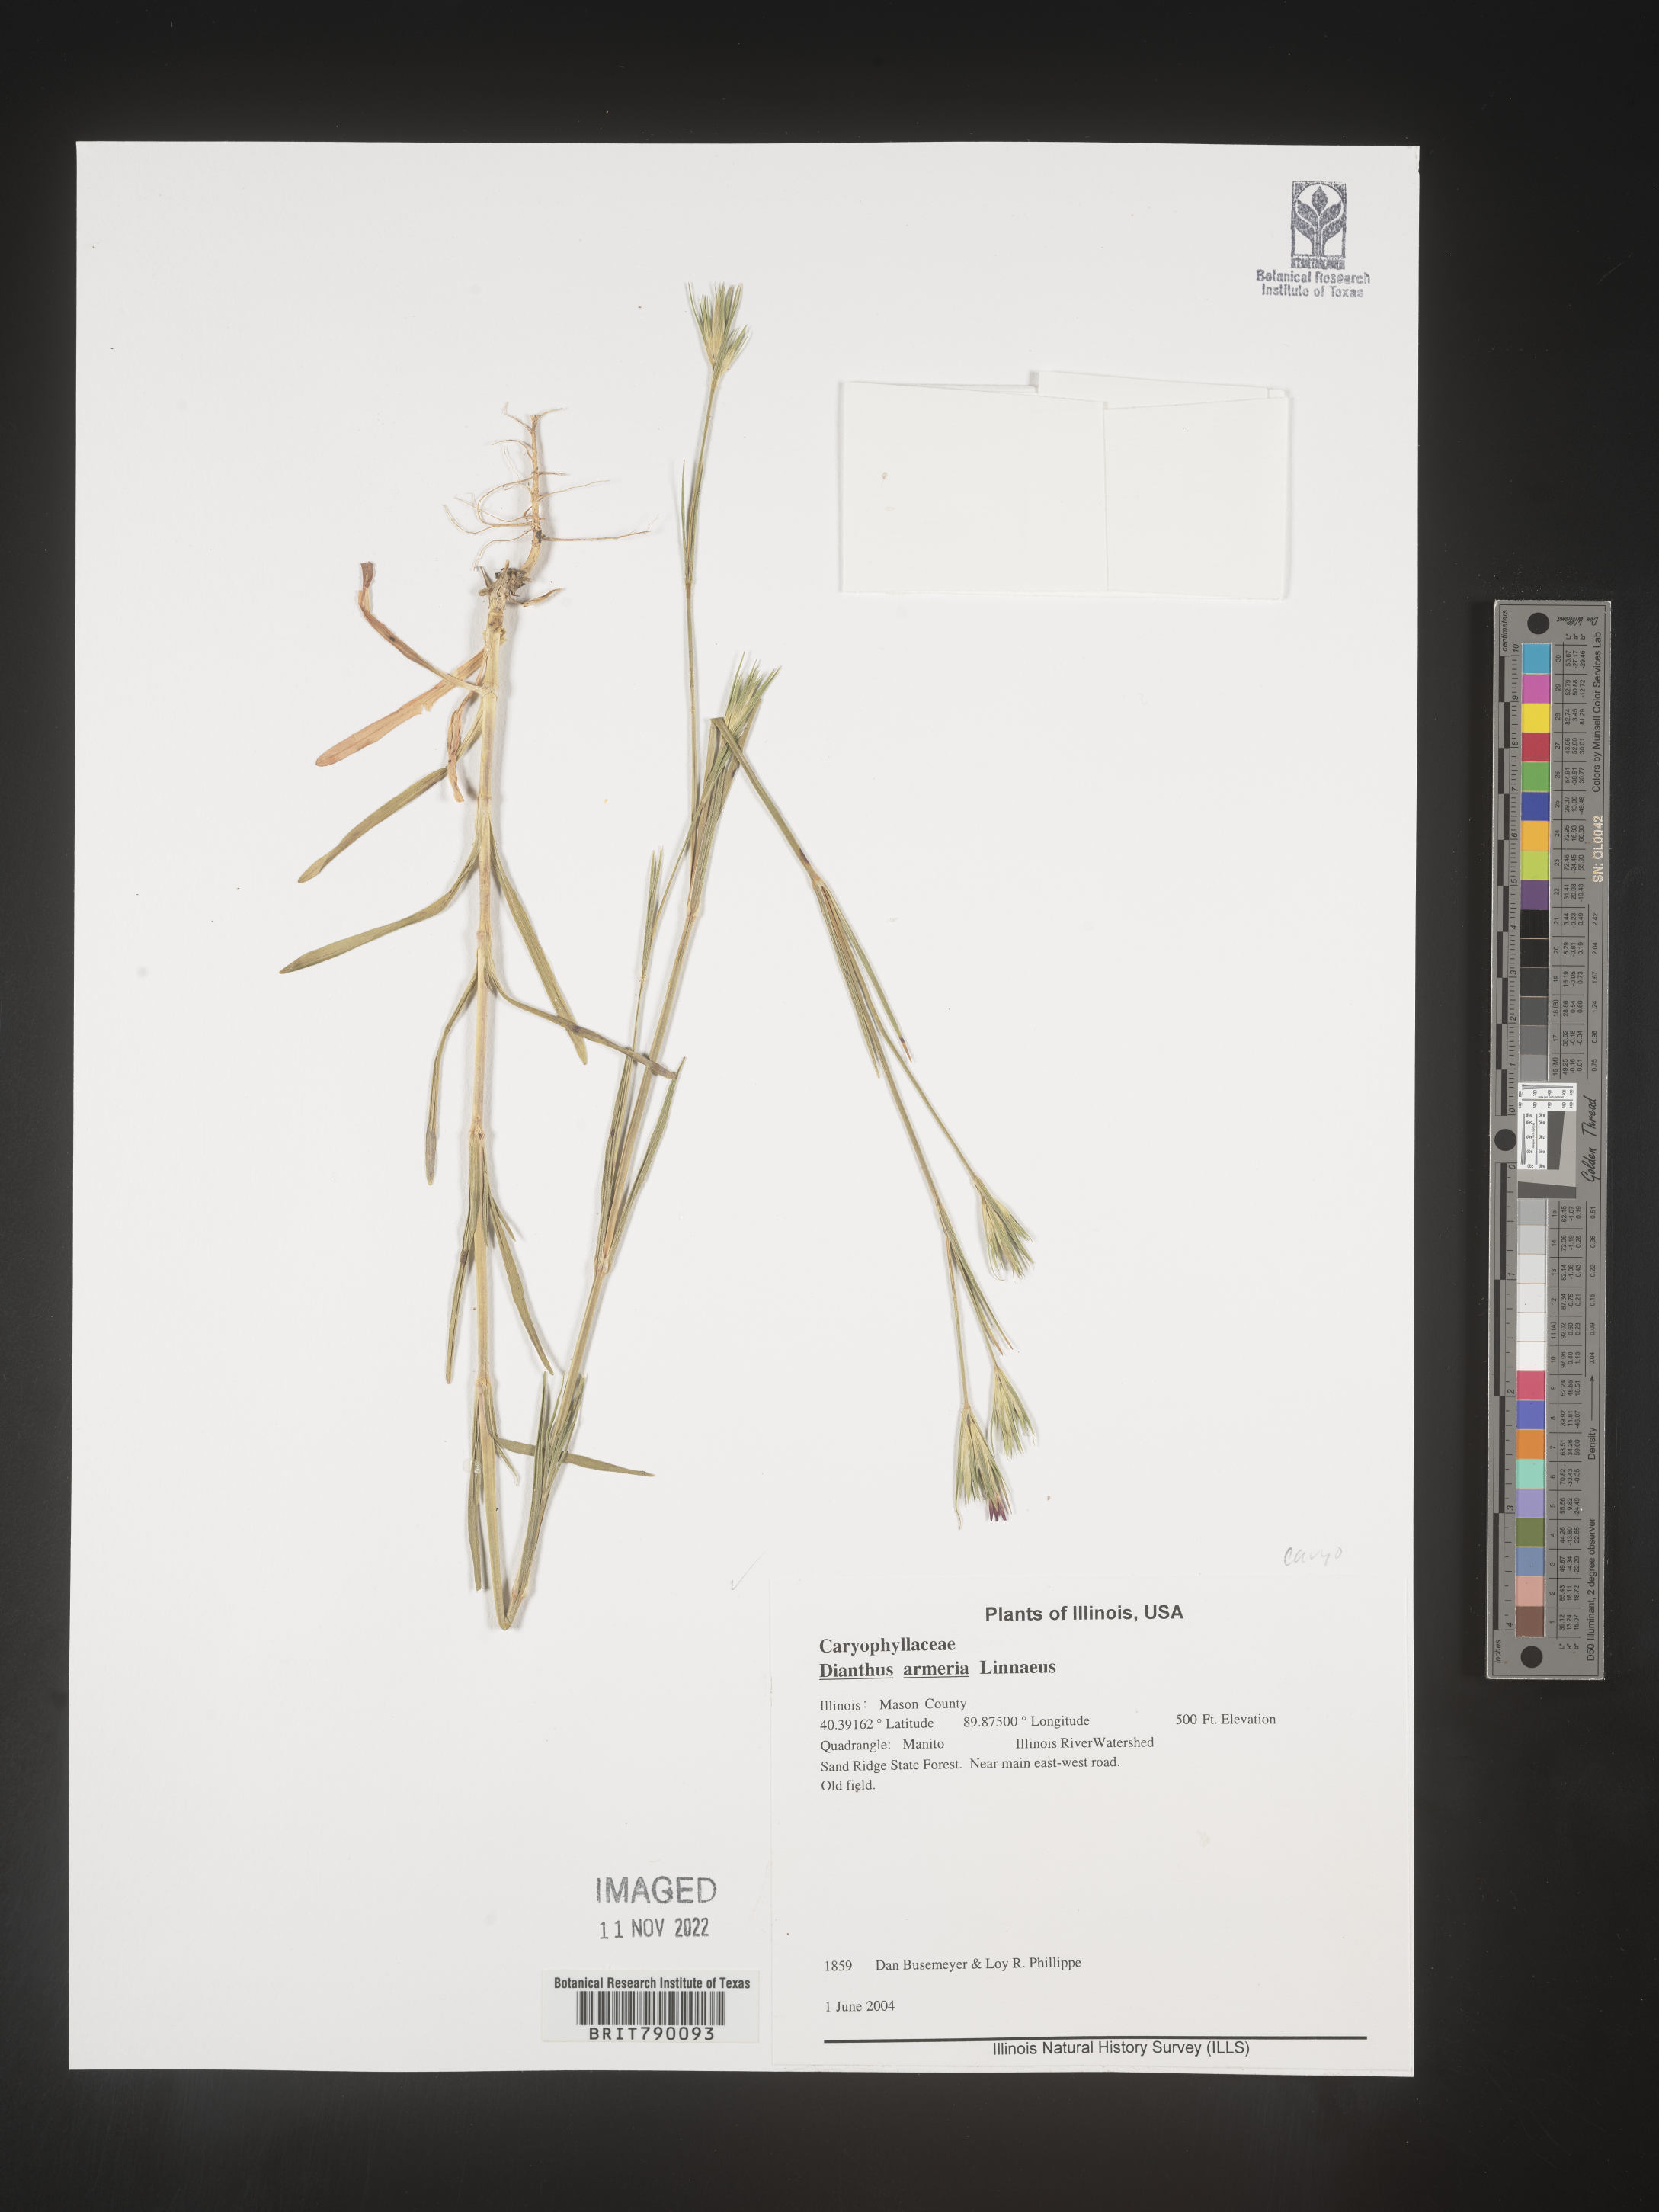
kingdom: Plantae
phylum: Tracheophyta
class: Magnoliopsida
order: Caryophyllales
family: Caryophyllaceae
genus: Dianthus
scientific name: Dianthus armeria
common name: Deptford pink
